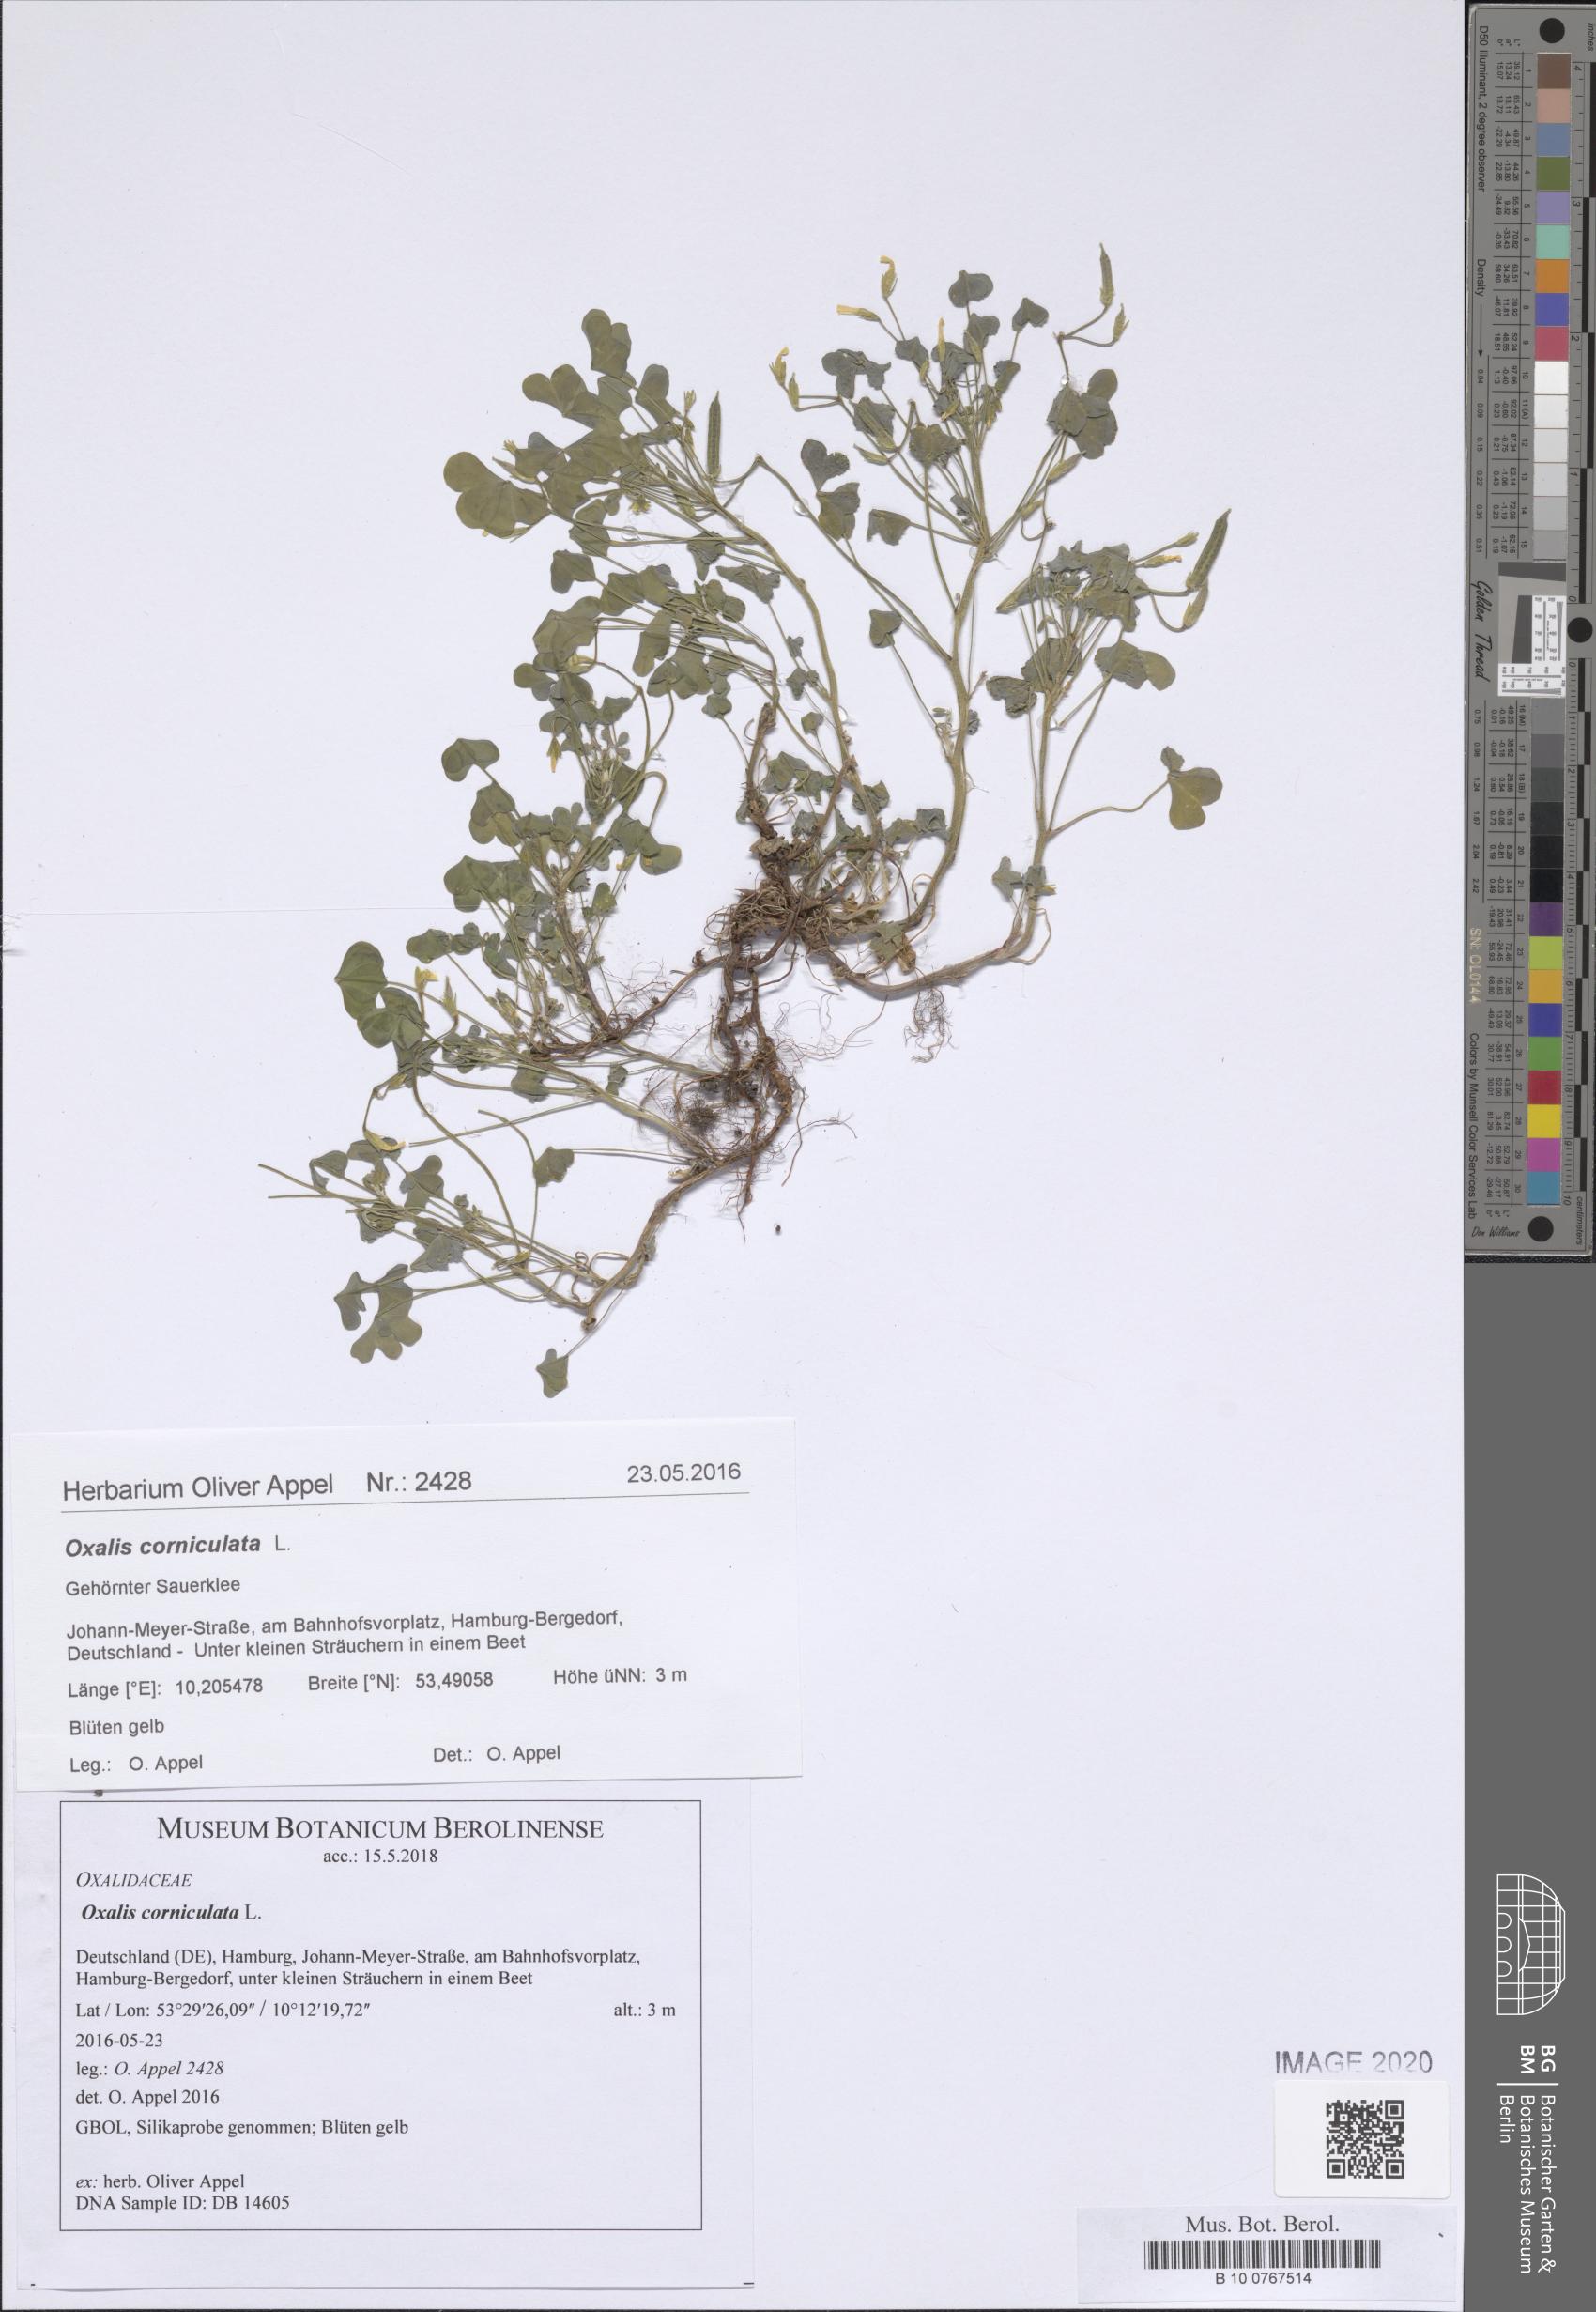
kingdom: Plantae
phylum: Tracheophyta
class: Magnoliopsida
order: Oxalidales
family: Oxalidaceae
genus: Oxalis
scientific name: Oxalis corniculata
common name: Procumbent yellow-sorrel
